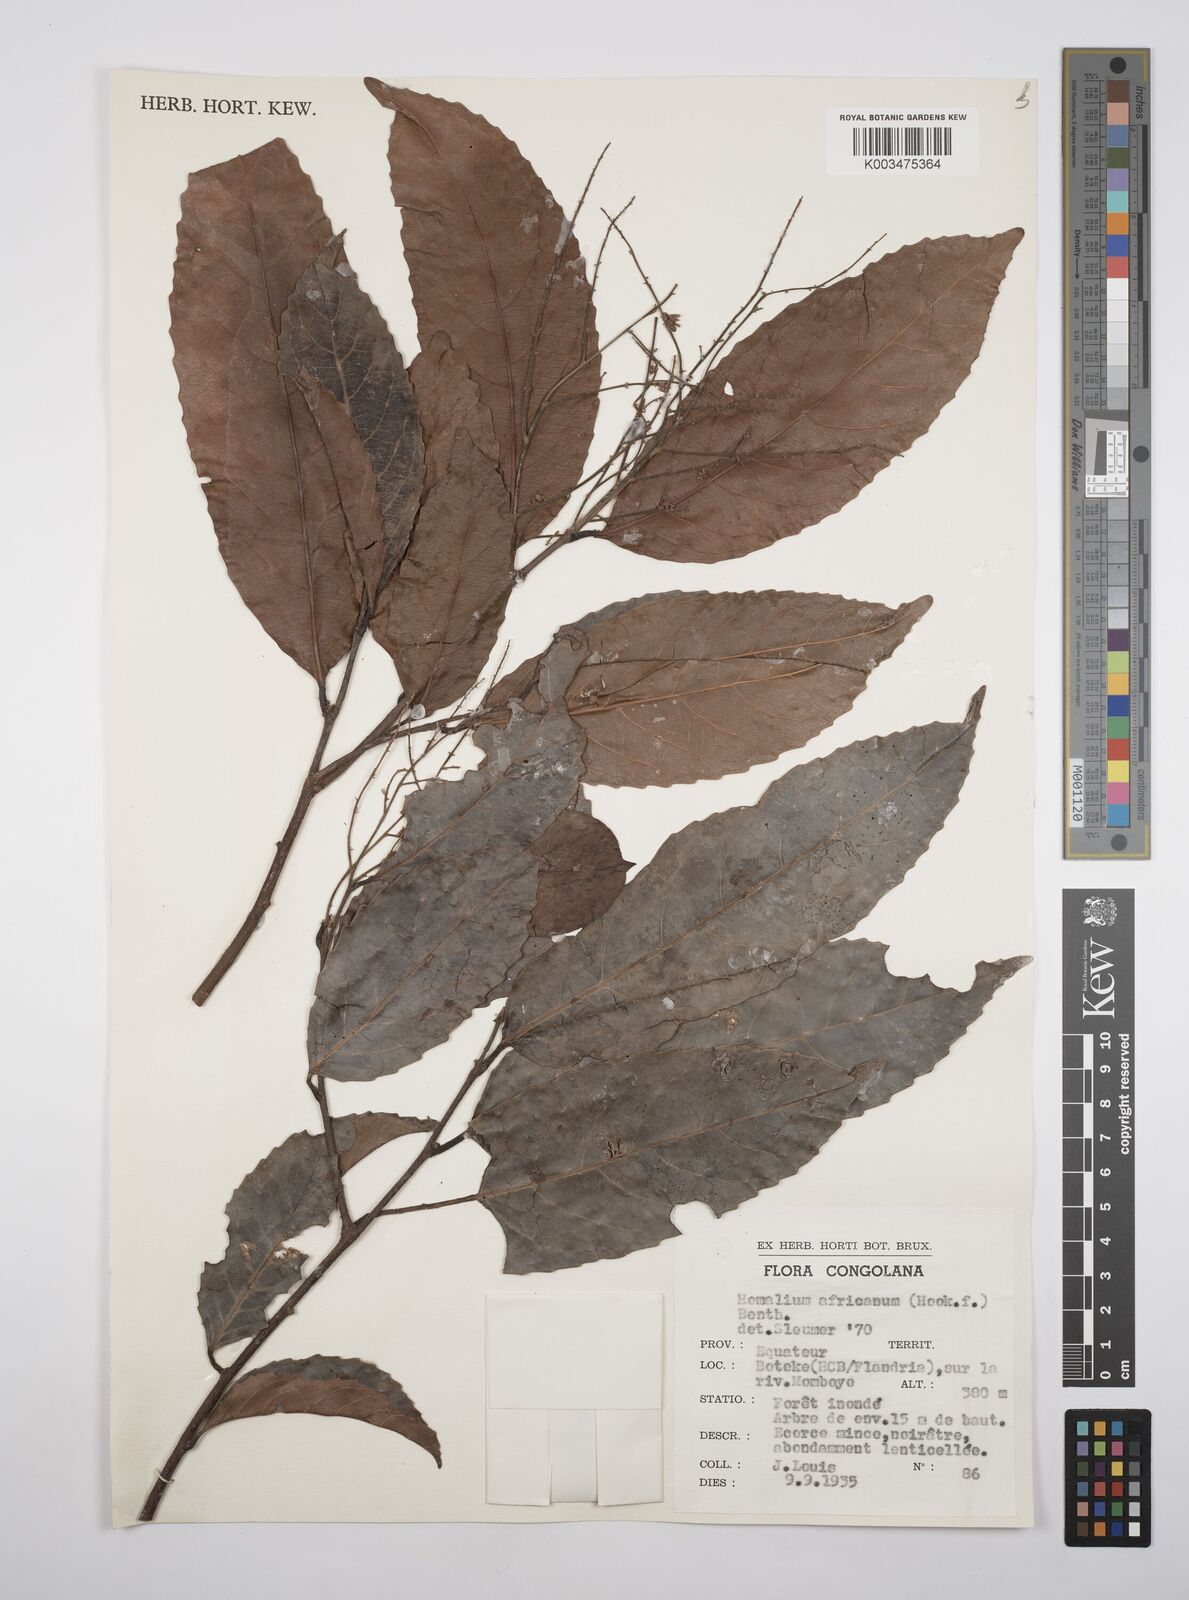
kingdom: Plantae
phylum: Tracheophyta
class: Magnoliopsida
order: Malpighiales
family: Salicaceae
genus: Homalium
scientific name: Homalium africanum
